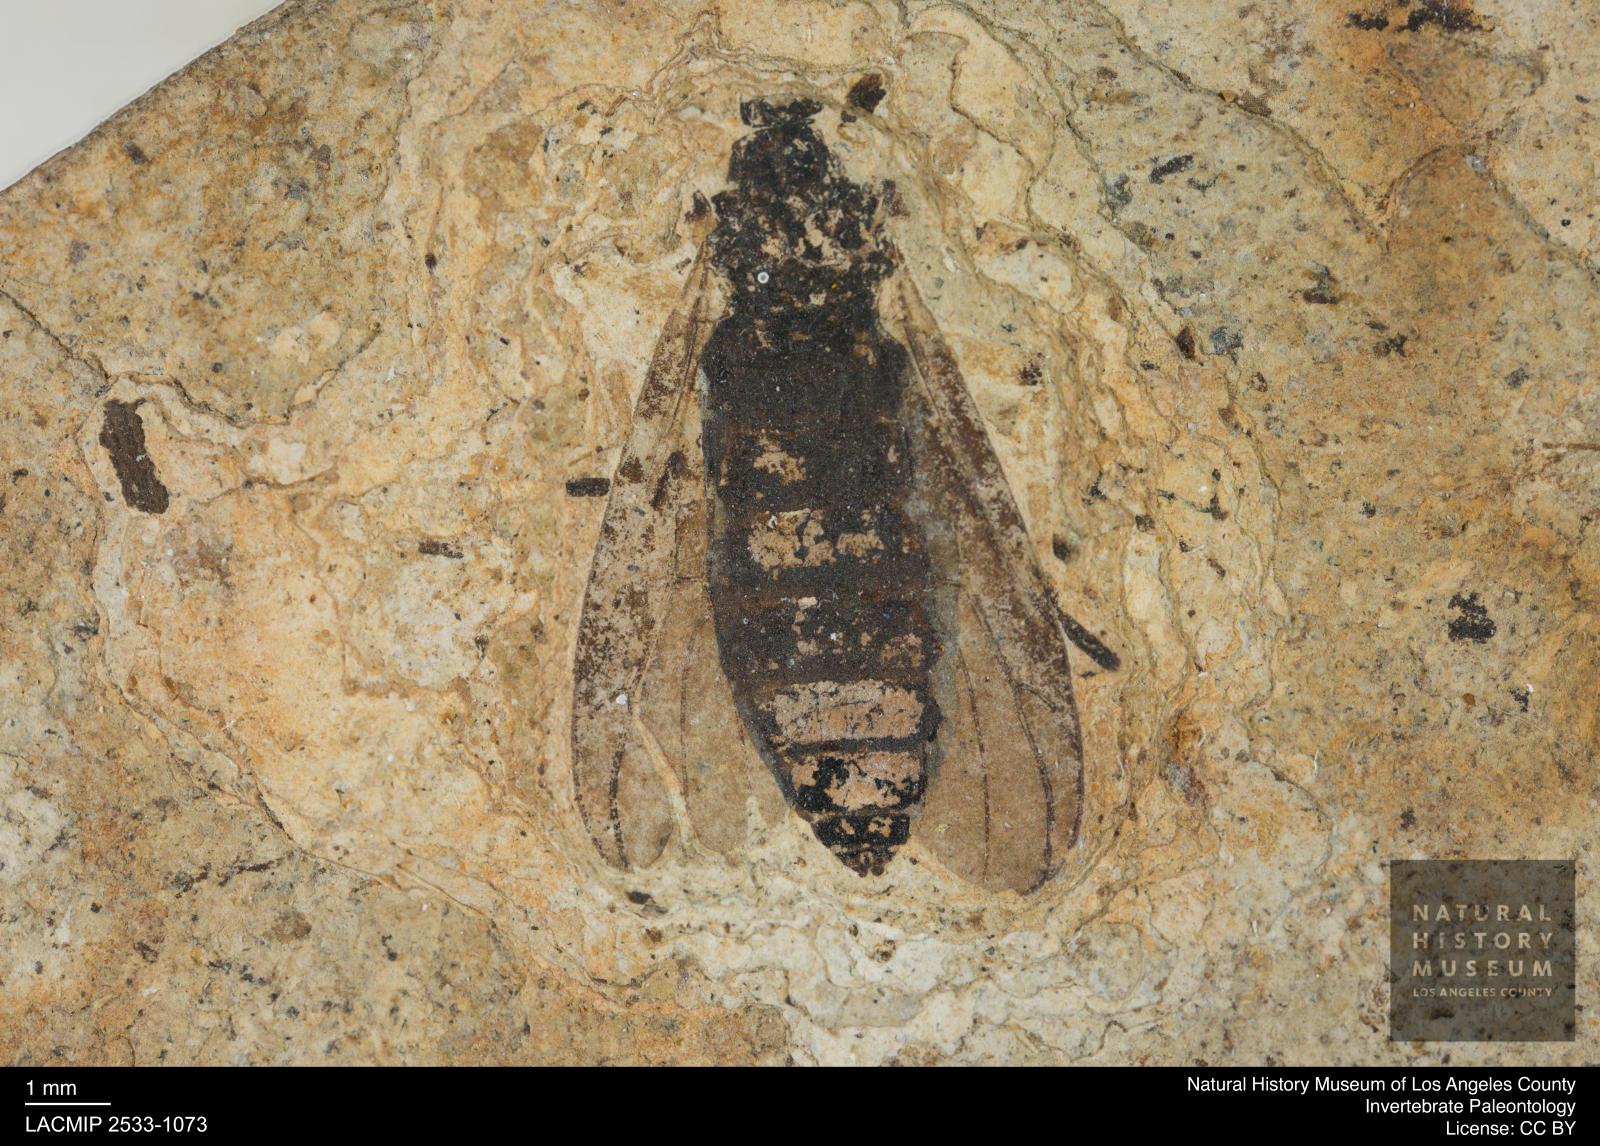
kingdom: Animalia
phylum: Arthropoda
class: Insecta
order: Diptera
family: Bibionidae
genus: Plecia
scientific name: Plecia
